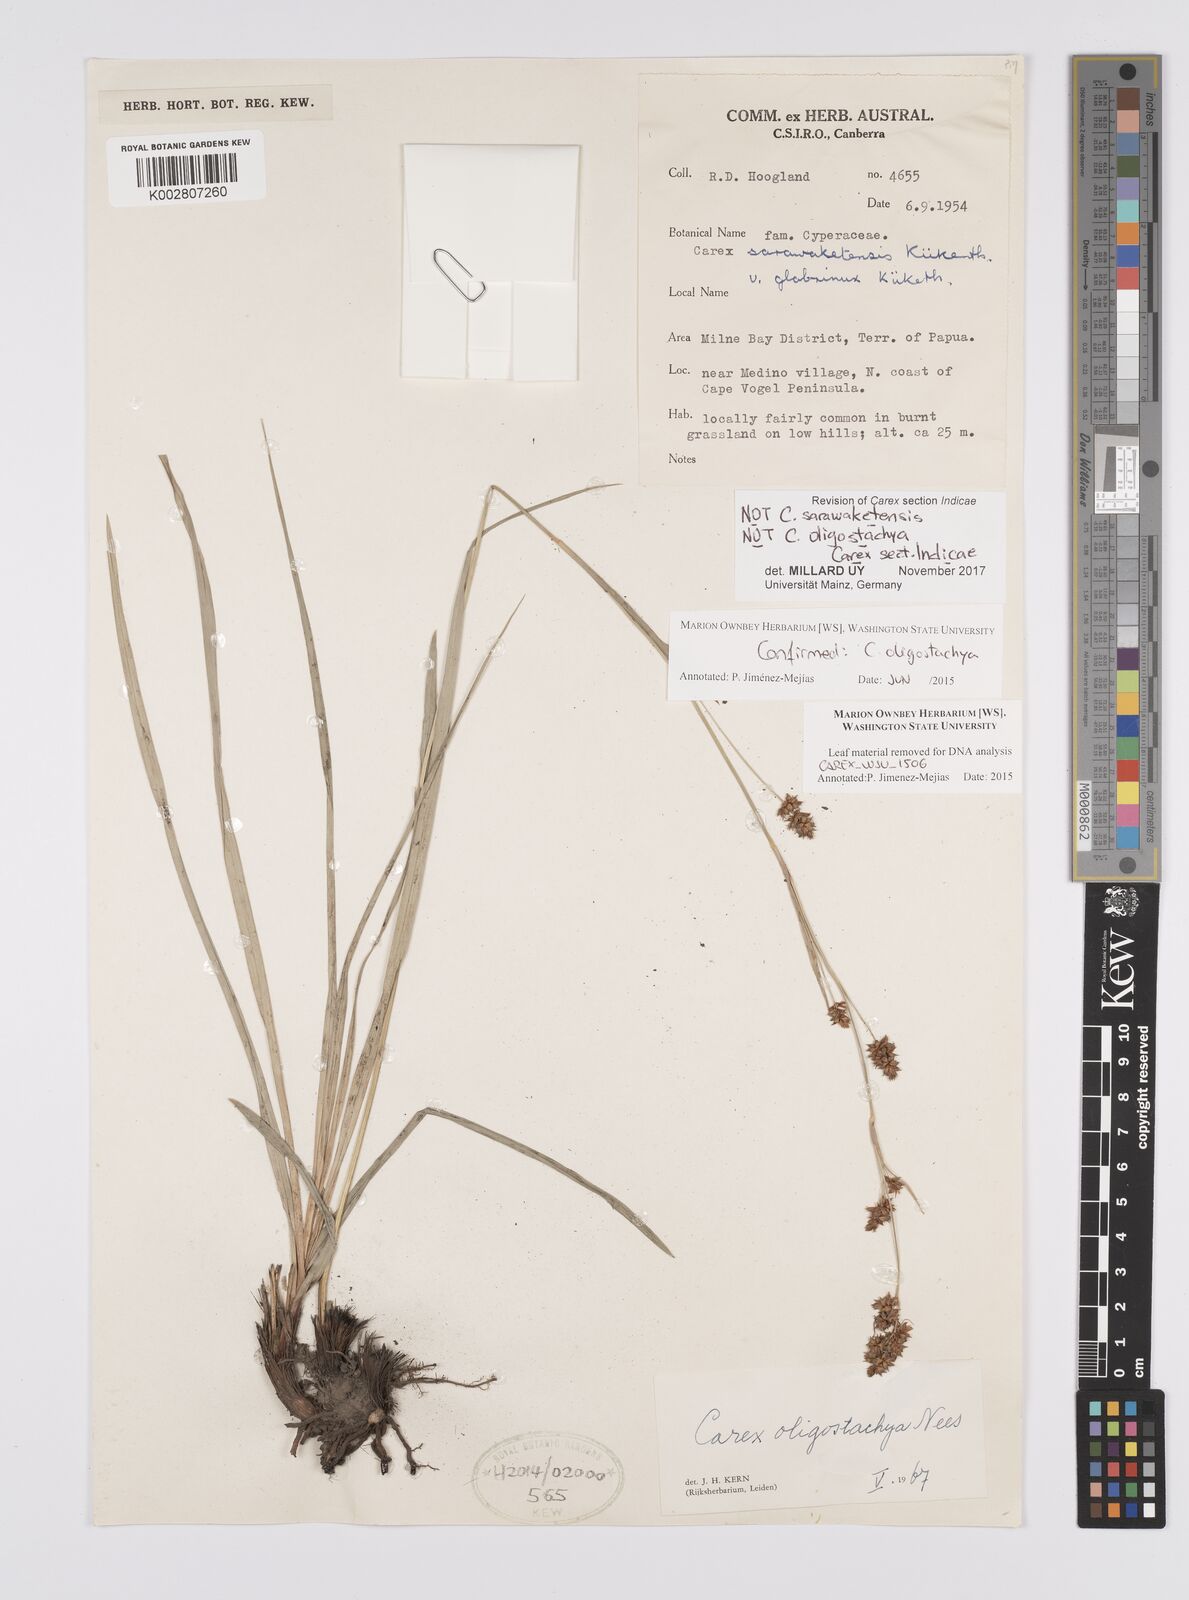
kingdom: Plantae
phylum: Tracheophyta
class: Liliopsida
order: Poales
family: Cyperaceae
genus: Carex
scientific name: Carex
